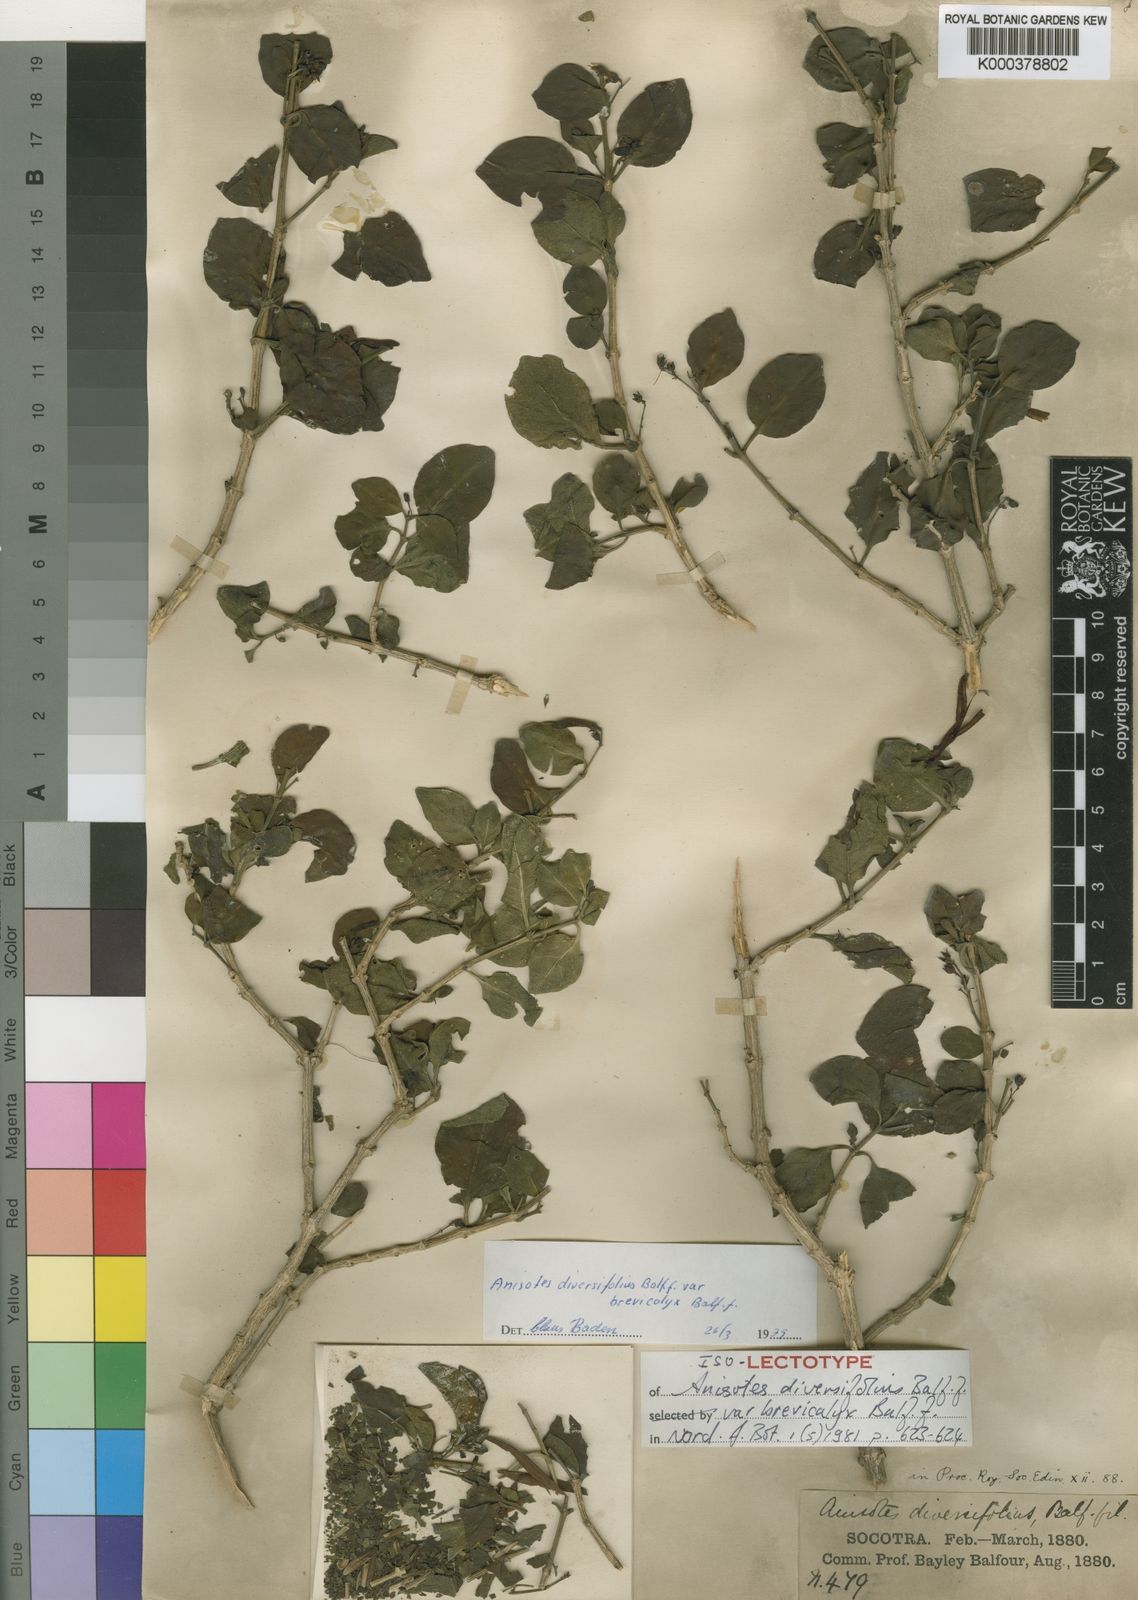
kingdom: Plantae
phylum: Tracheophyta
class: Magnoliopsida
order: Lamiales
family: Acanthaceae
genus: Anisotes
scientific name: Anisotes diversifolius
